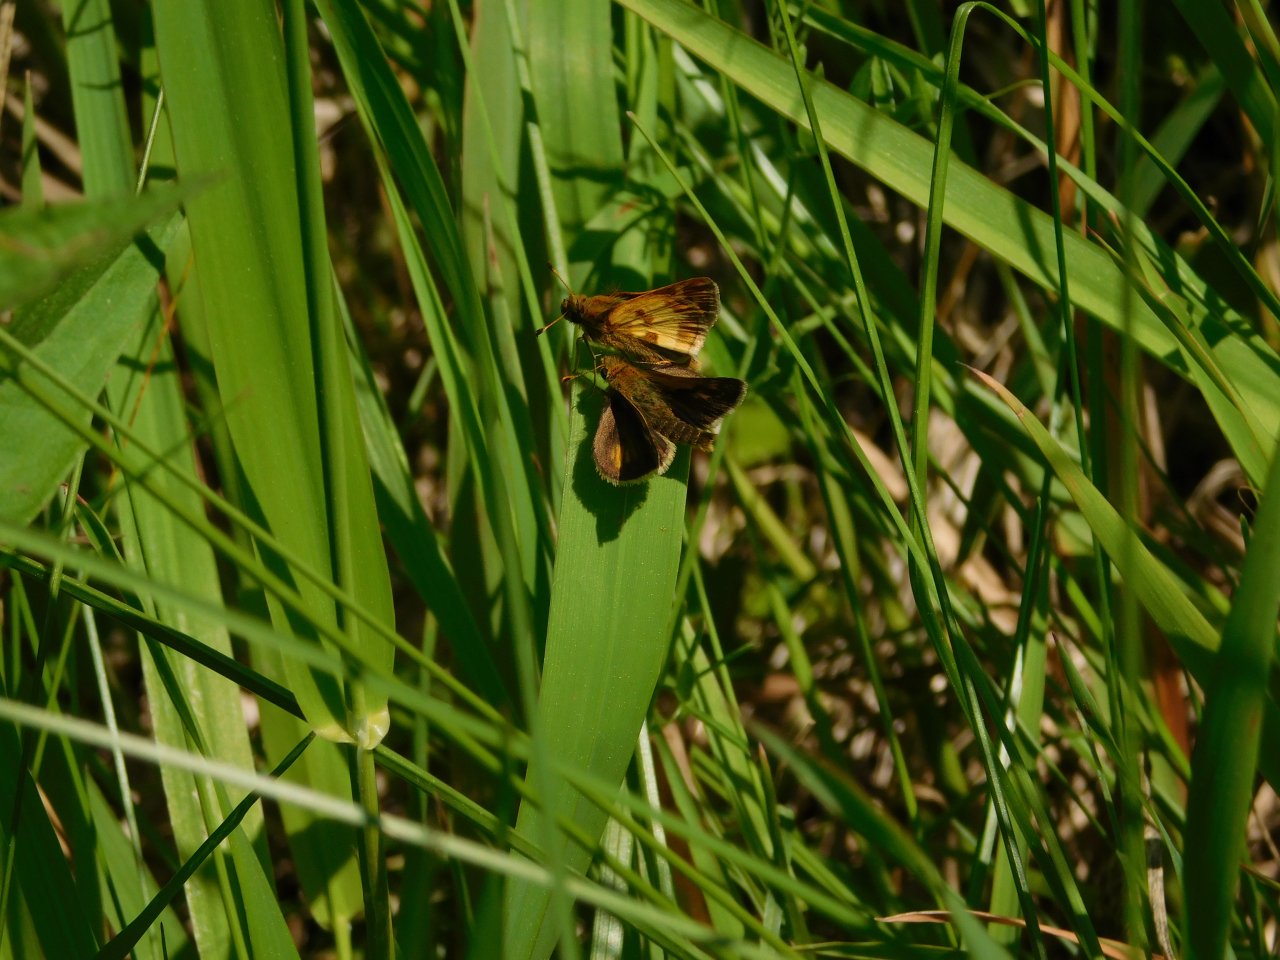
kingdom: Animalia
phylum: Arthropoda
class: Insecta
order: Lepidoptera
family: Hesperiidae
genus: Polites
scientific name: Polites coras
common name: Peck's Skipper
